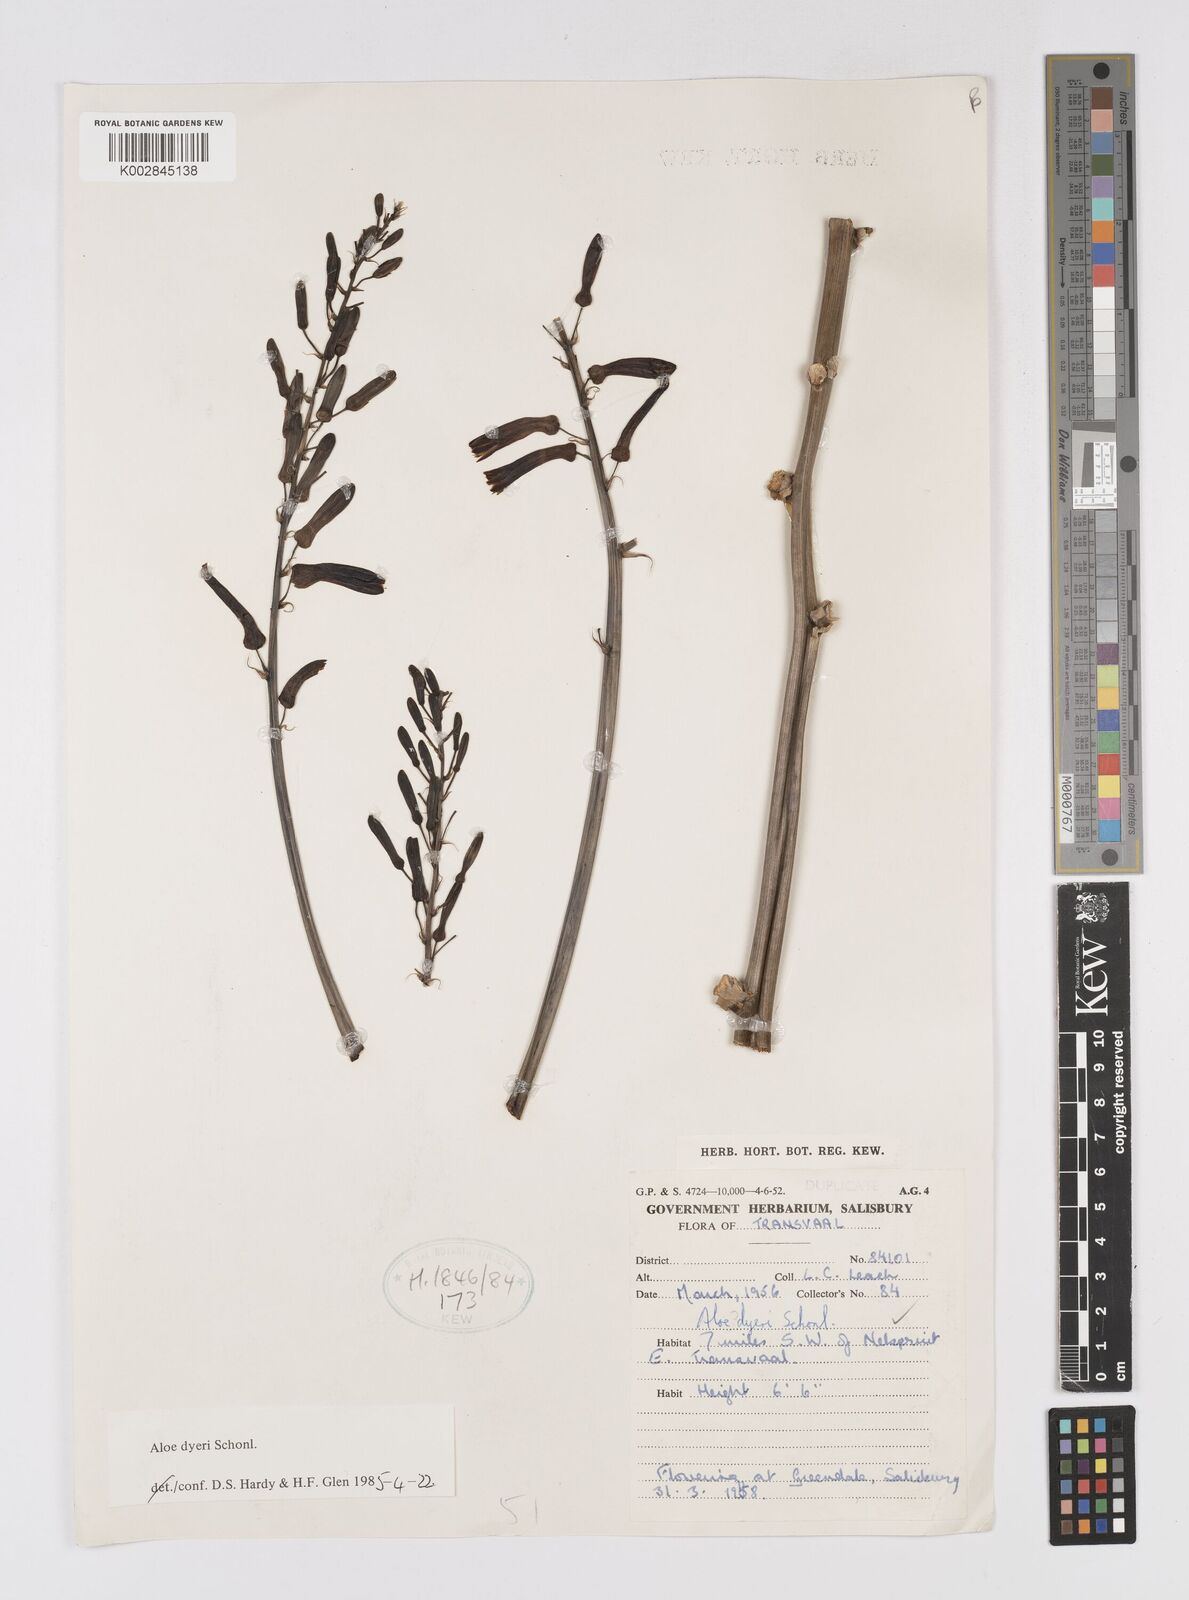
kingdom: Plantae
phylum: Tracheophyta
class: Liliopsida
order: Asparagales
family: Asphodelaceae
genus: Aloe
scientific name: Aloe dyeri
